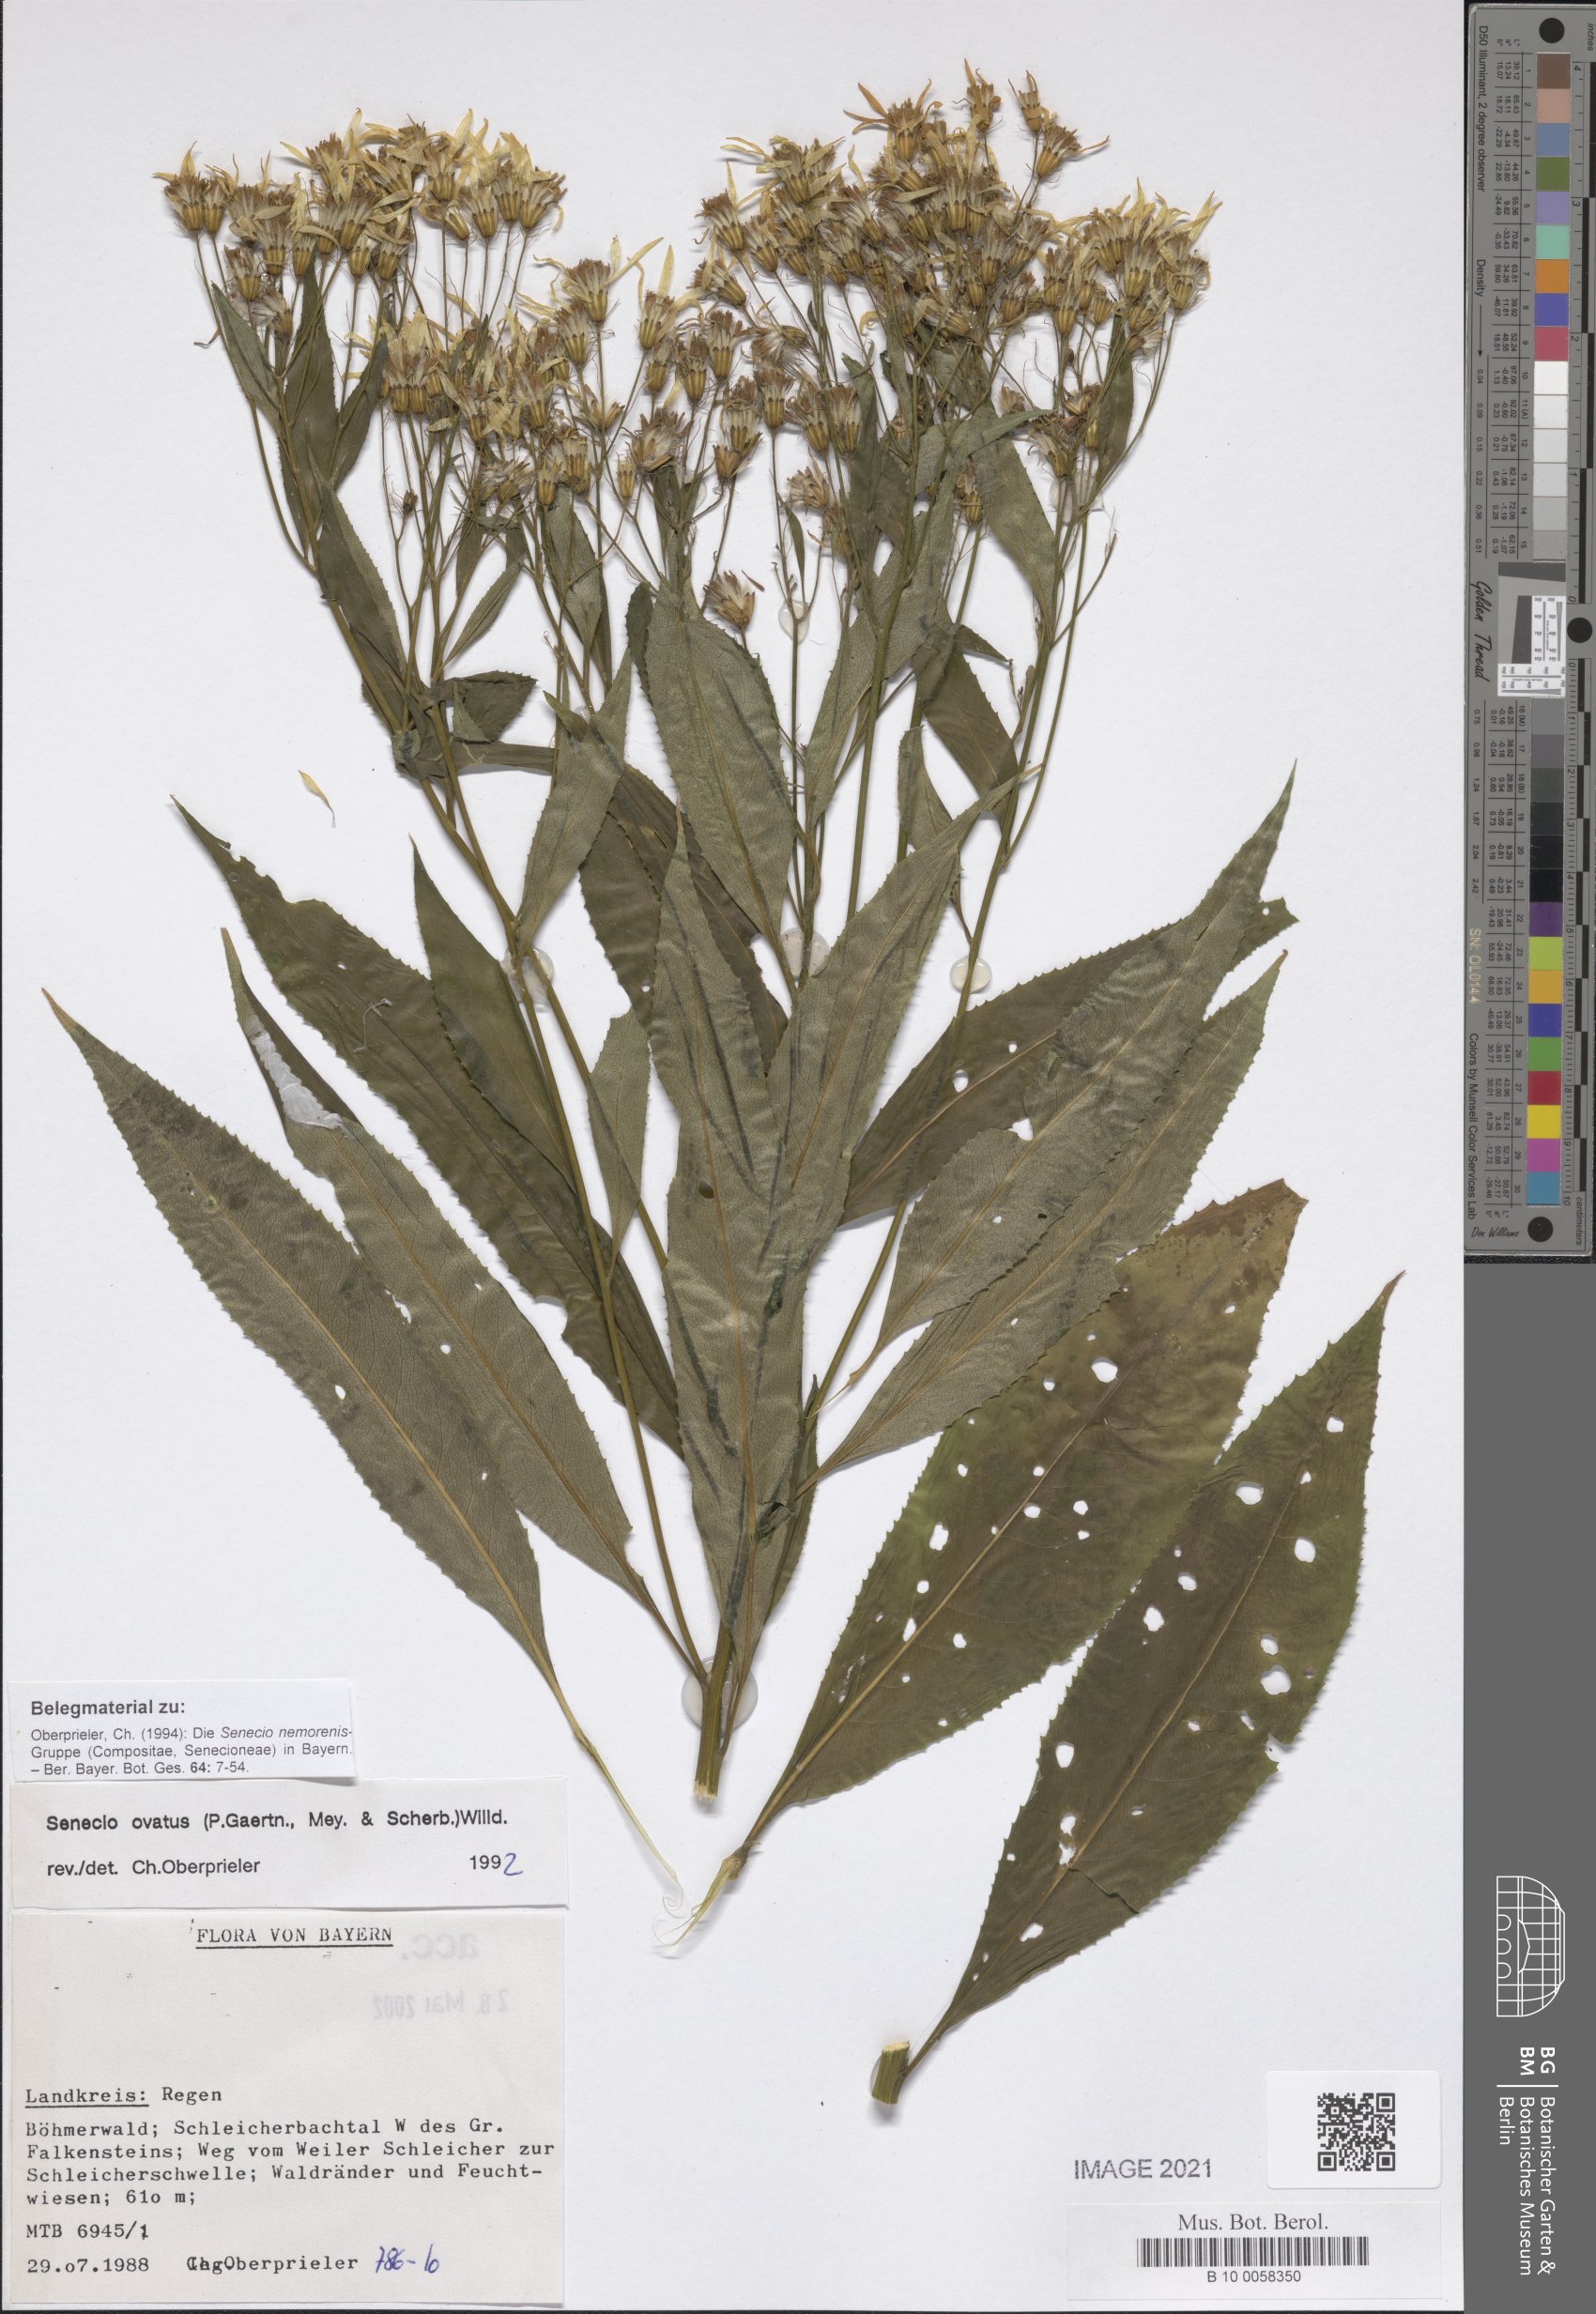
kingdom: Plantae
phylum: Tracheophyta
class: Magnoliopsida
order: Asterales
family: Asteraceae
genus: Senecio
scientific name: Senecio ovatus
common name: Wood ragwort
